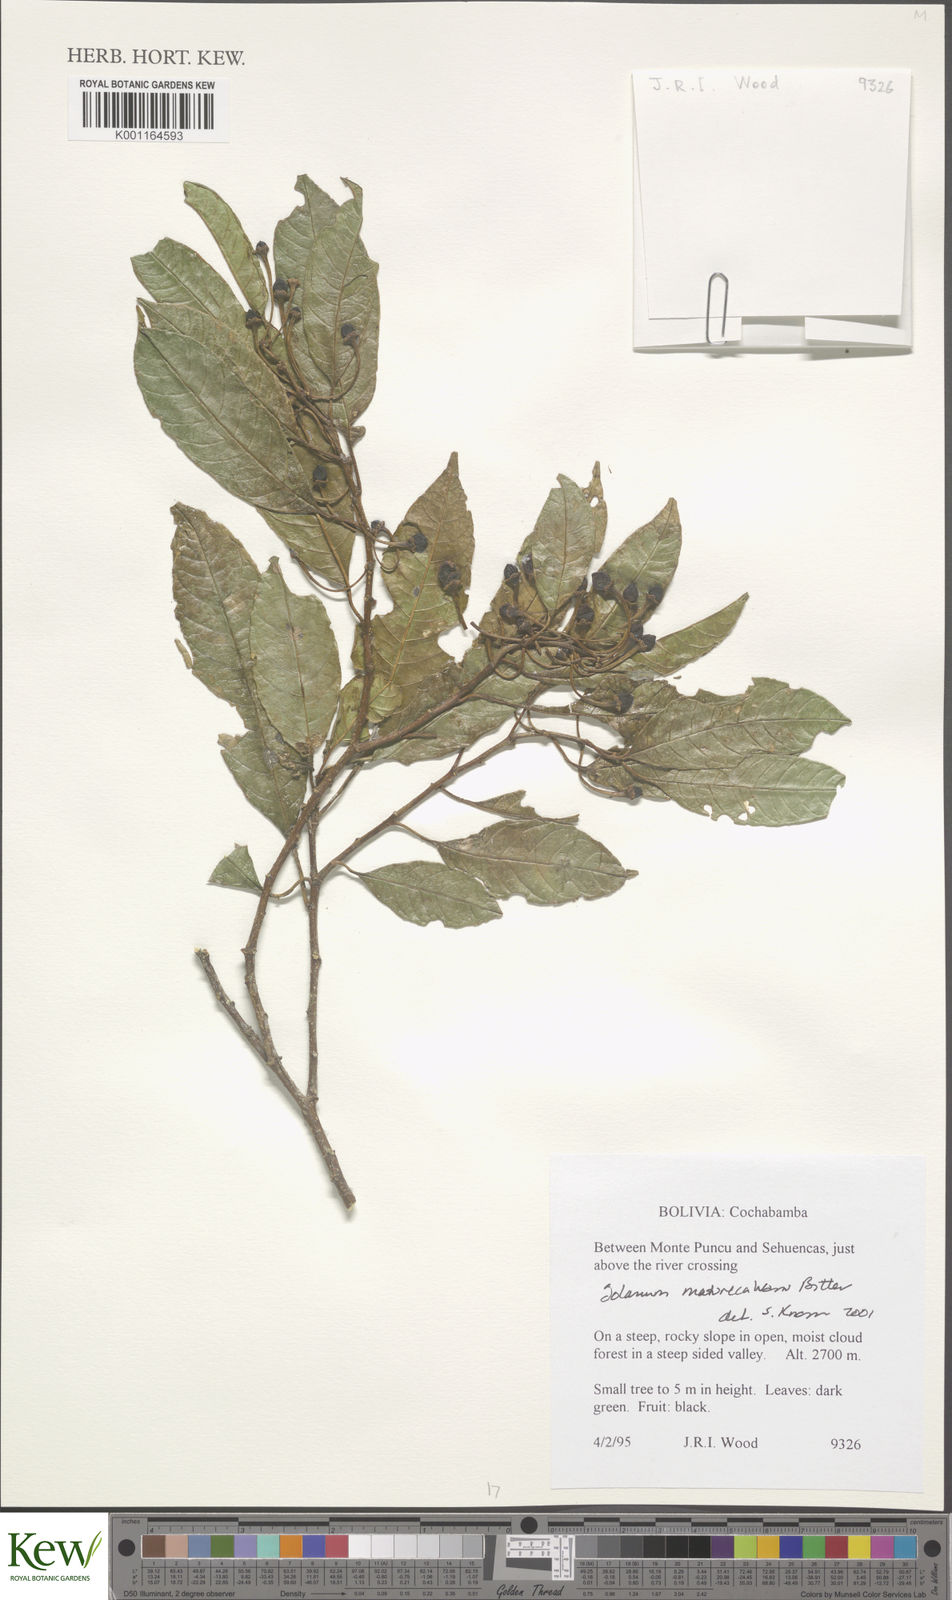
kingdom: Plantae
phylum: Tracheophyta
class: Magnoliopsida
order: Solanales
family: Solanaceae
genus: Solanum
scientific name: Solanum maturecalvans
